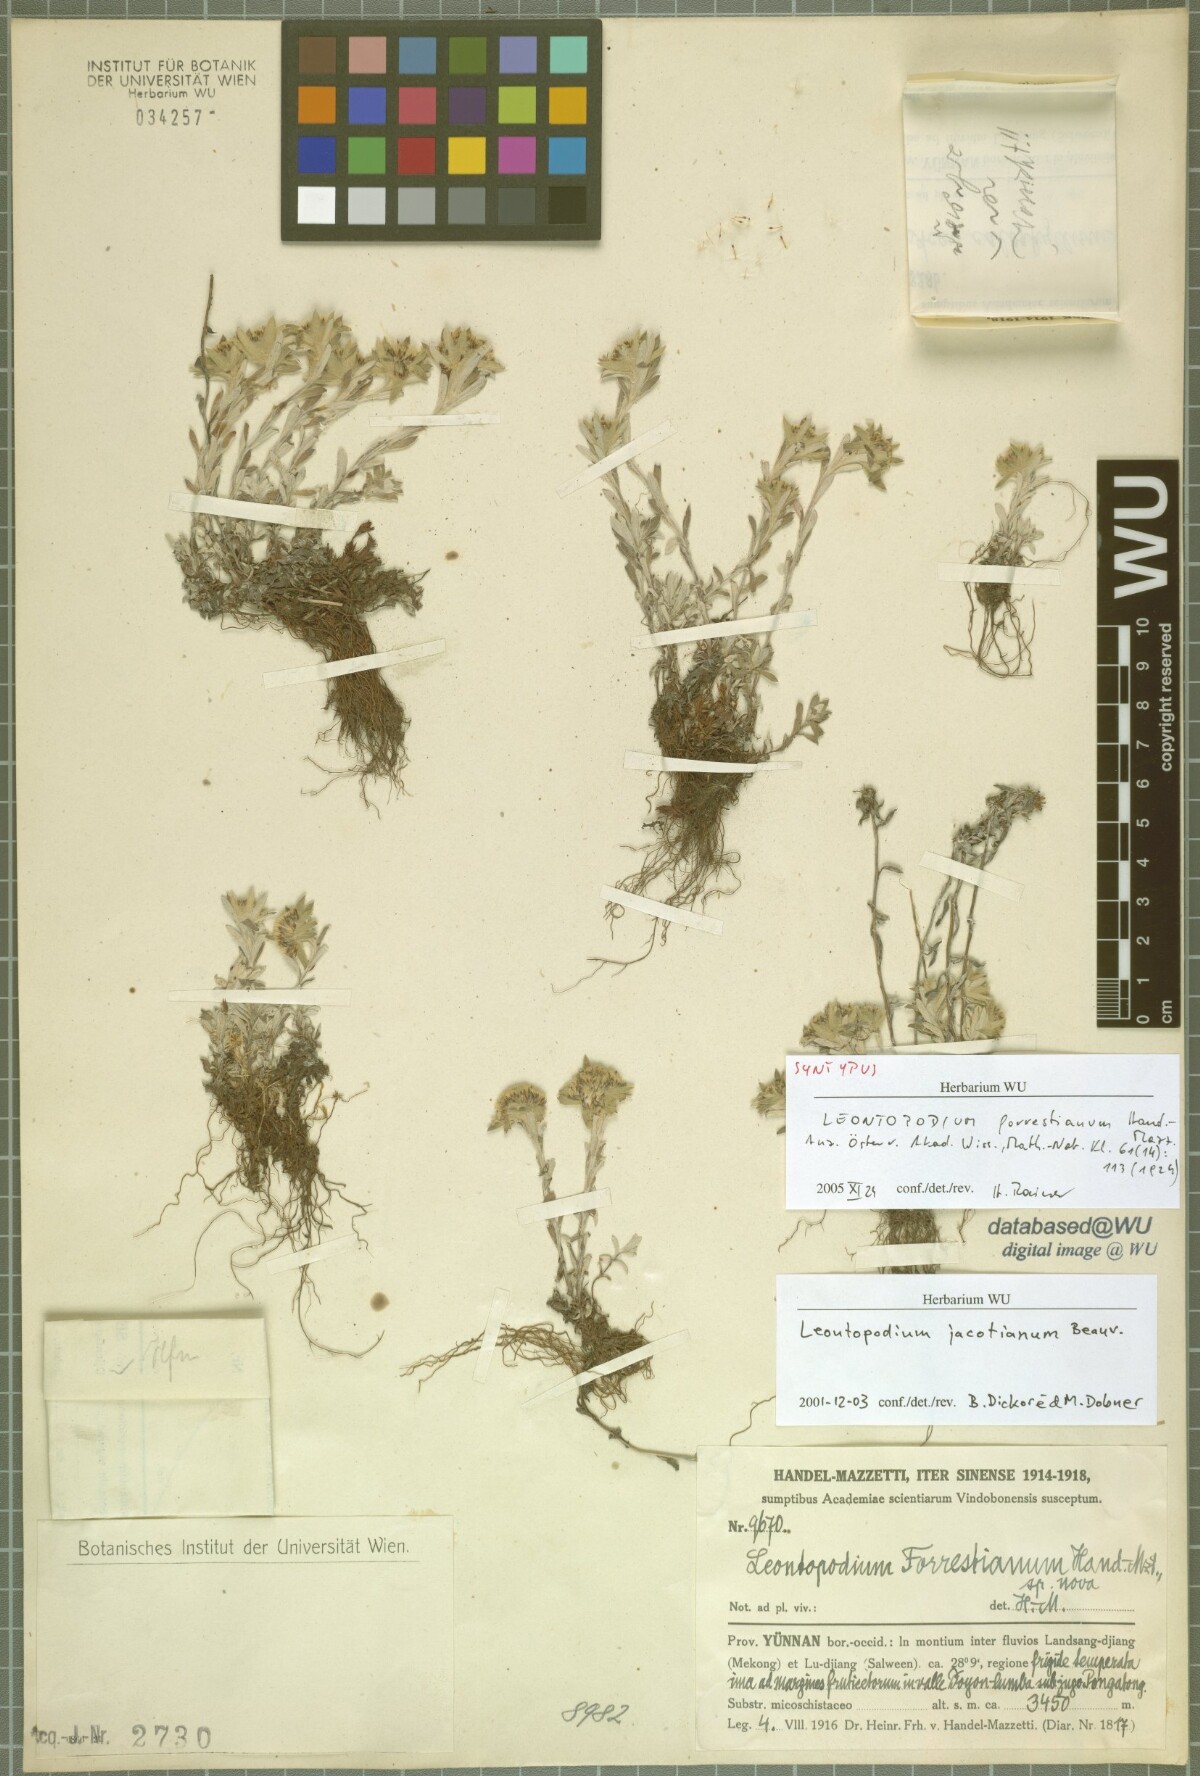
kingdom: Plantae
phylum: Tracheophyta
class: Magnoliopsida
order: Asterales
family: Asteraceae
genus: Leontopodium
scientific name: Leontopodium forrestianum
